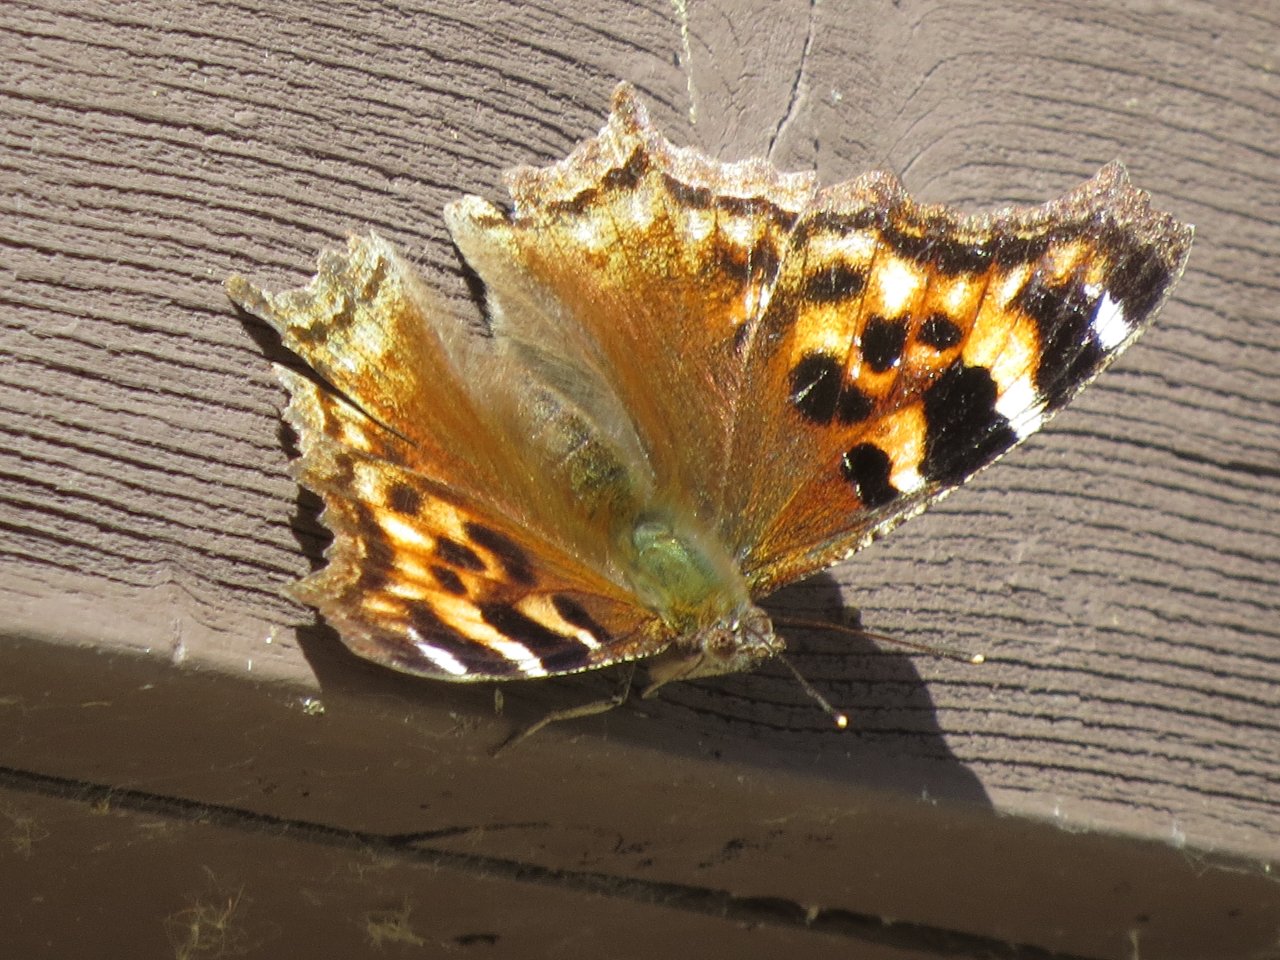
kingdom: Animalia
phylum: Arthropoda
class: Insecta
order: Lepidoptera
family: Nymphalidae
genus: Polygonia
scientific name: Polygonia vaualbum
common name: Compton Tortoiseshell
